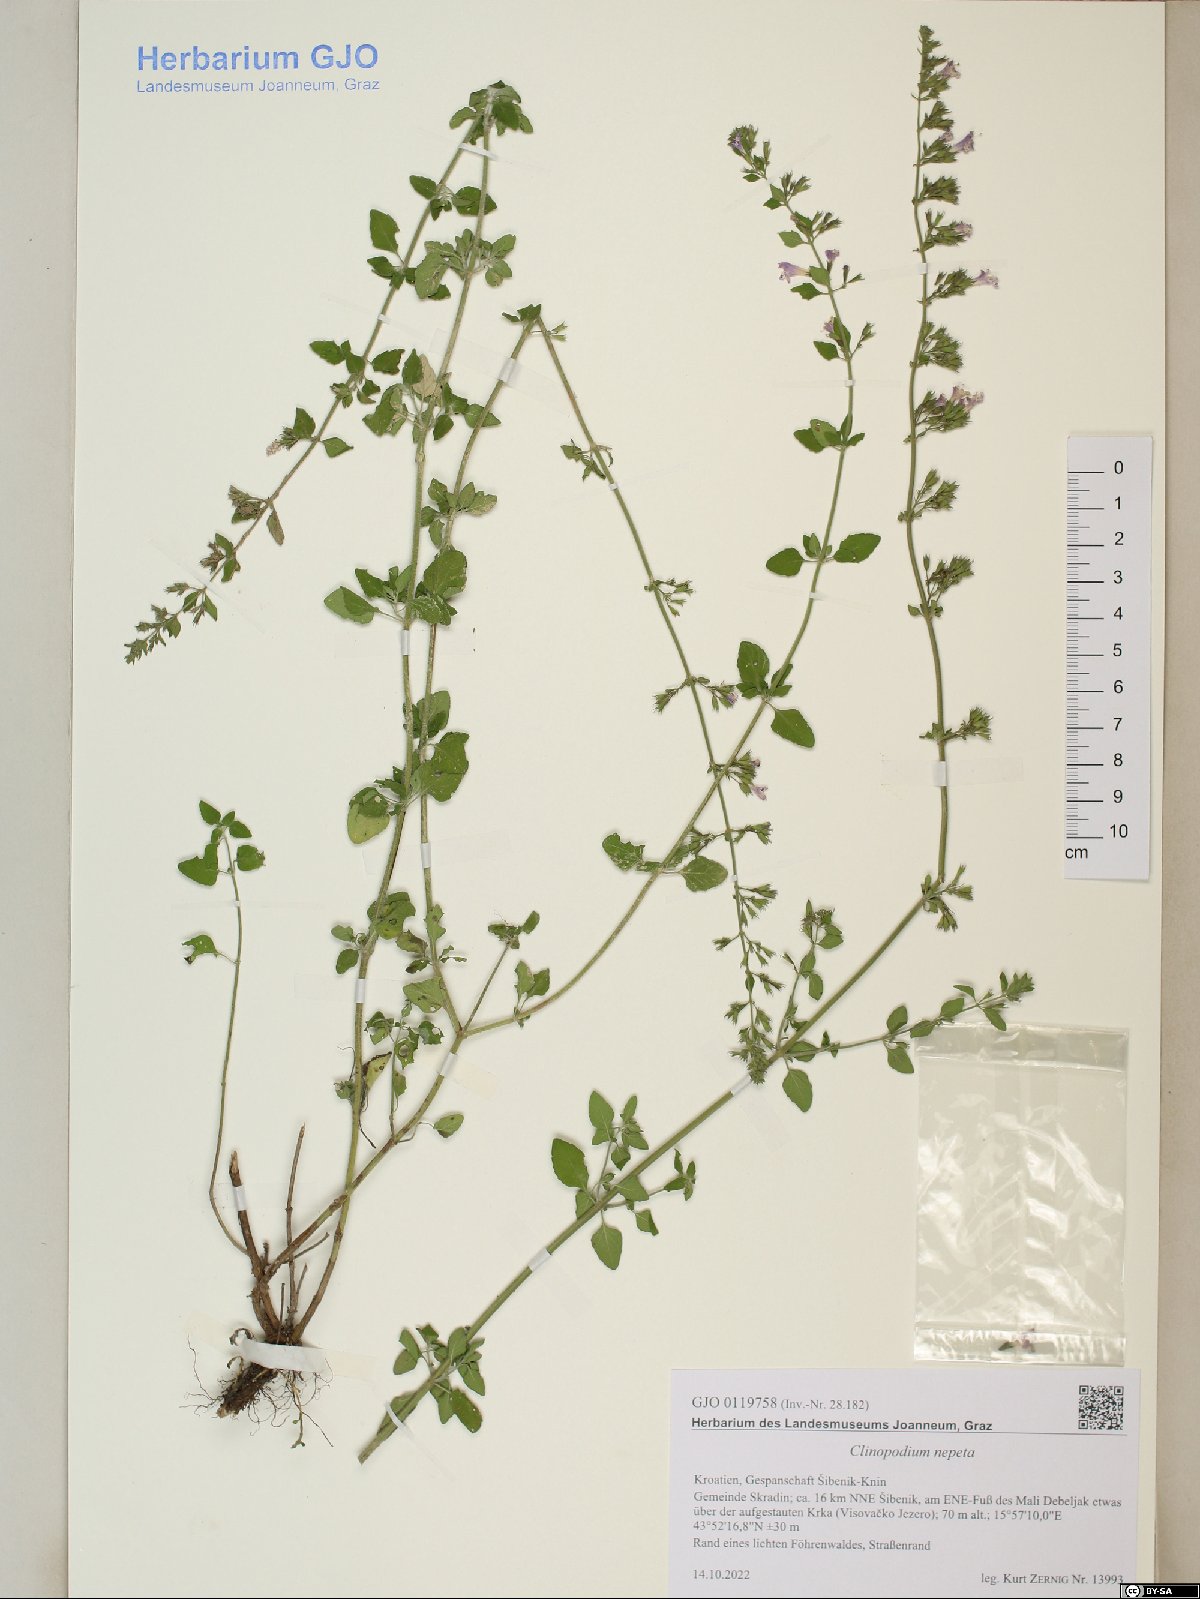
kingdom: Plantae
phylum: Tracheophyta
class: Magnoliopsida
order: Lamiales
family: Lamiaceae
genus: Clinopodium
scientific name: Clinopodium nepeta
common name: Lesser calamint
